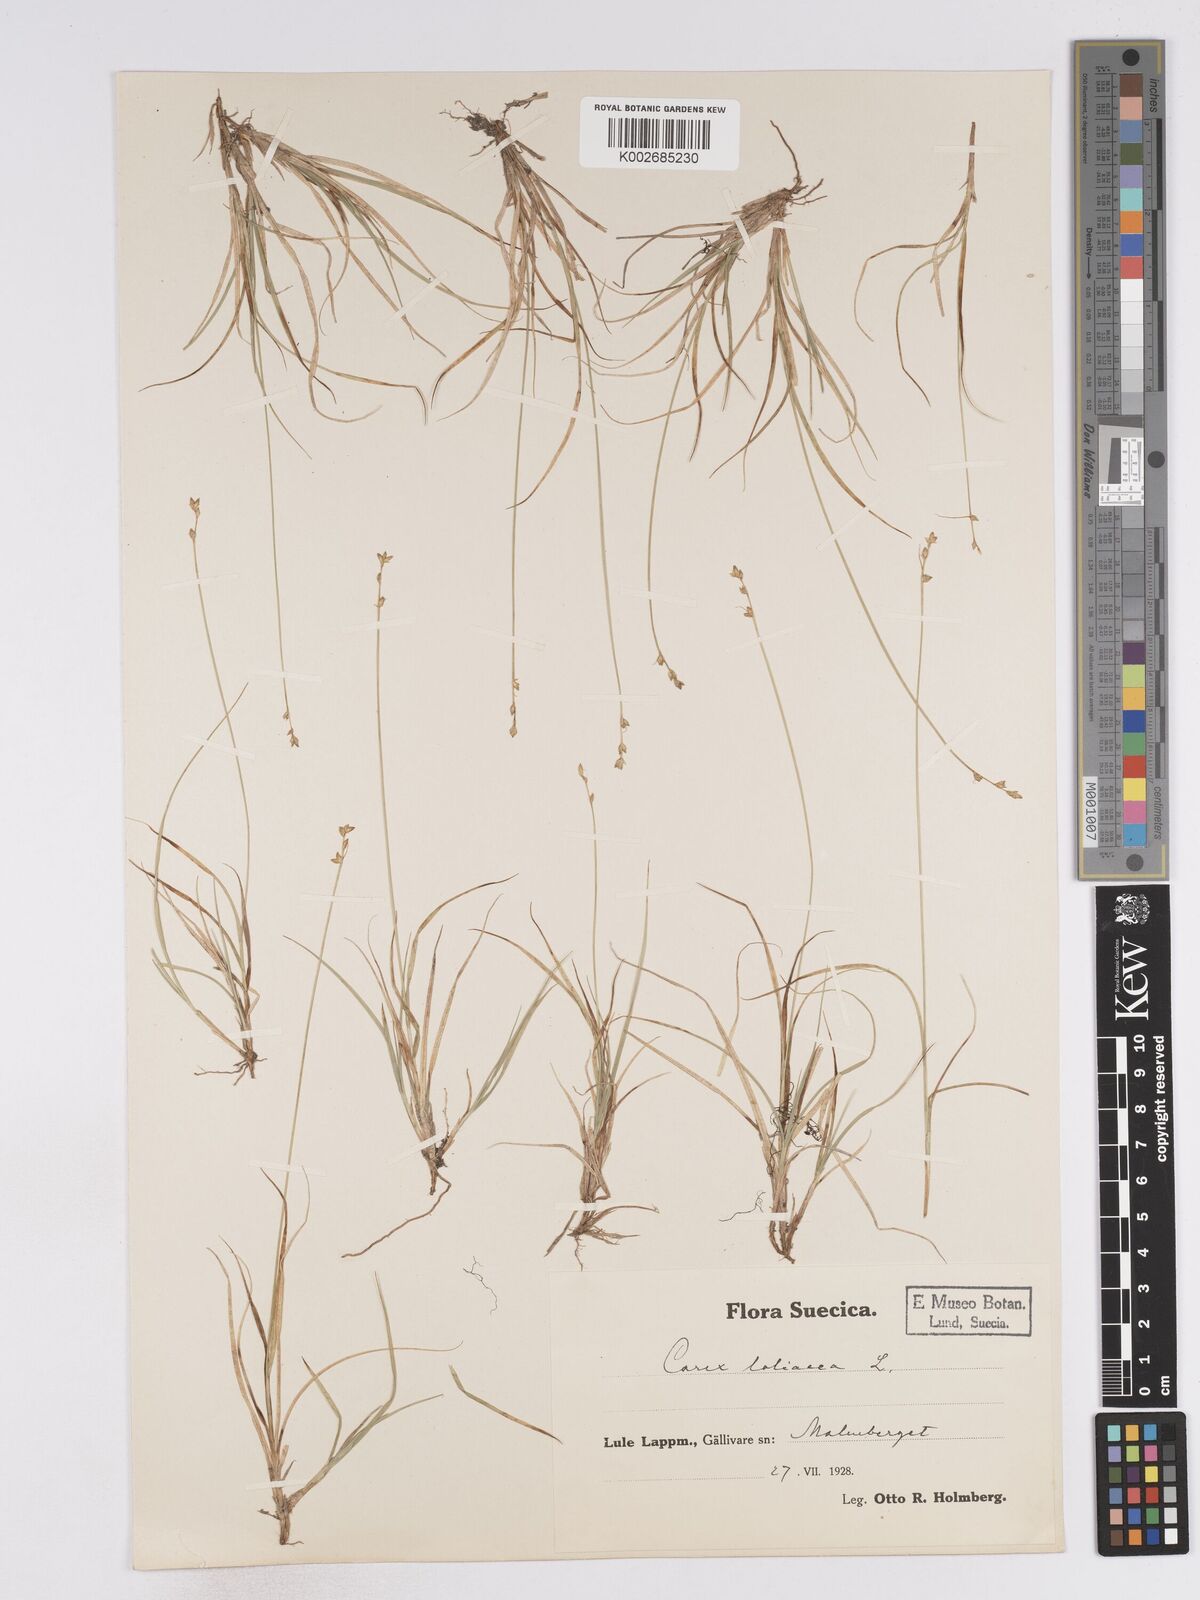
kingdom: Plantae
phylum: Tracheophyta
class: Liliopsida
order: Poales
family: Cyperaceae
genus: Carex
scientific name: Carex loliacea
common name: Ryegrass sedge
